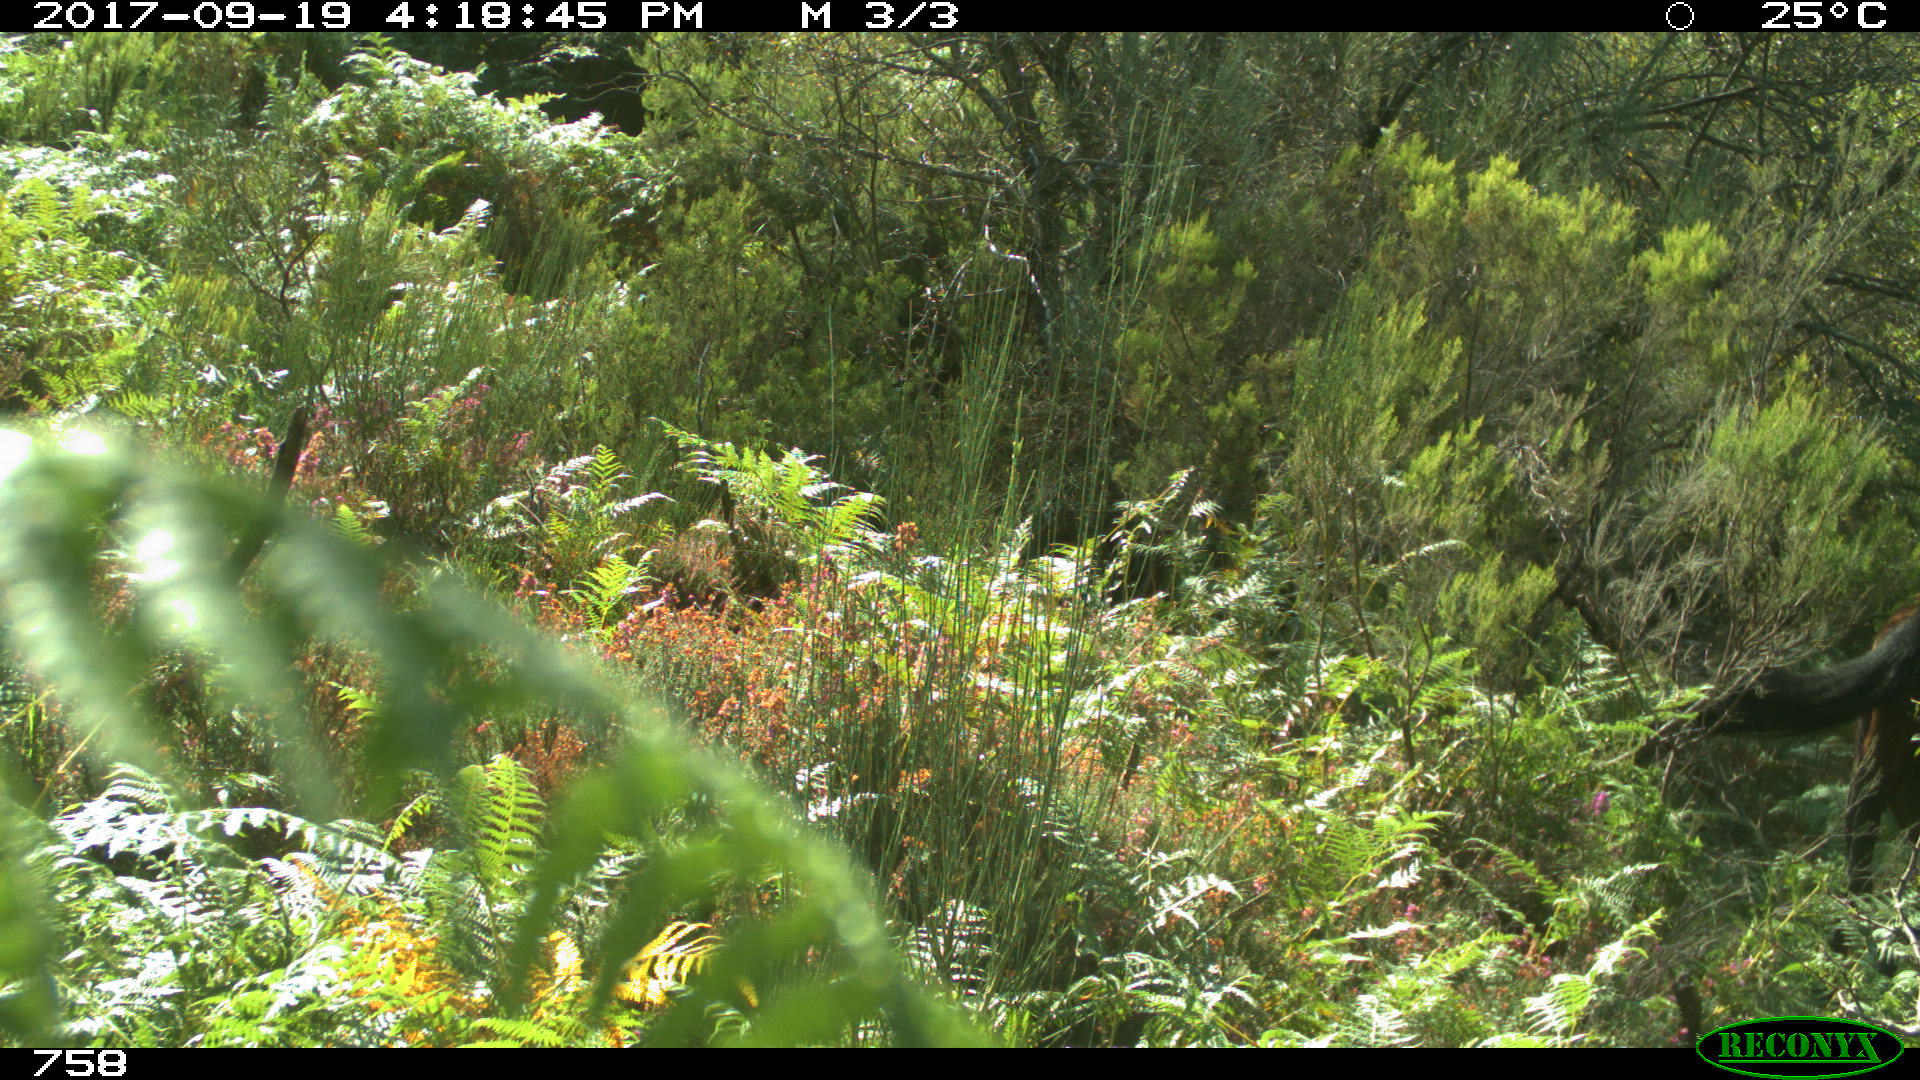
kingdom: Animalia
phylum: Chordata
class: Mammalia
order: Perissodactyla
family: Equidae
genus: Equus
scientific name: Equus caballus
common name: Horse
